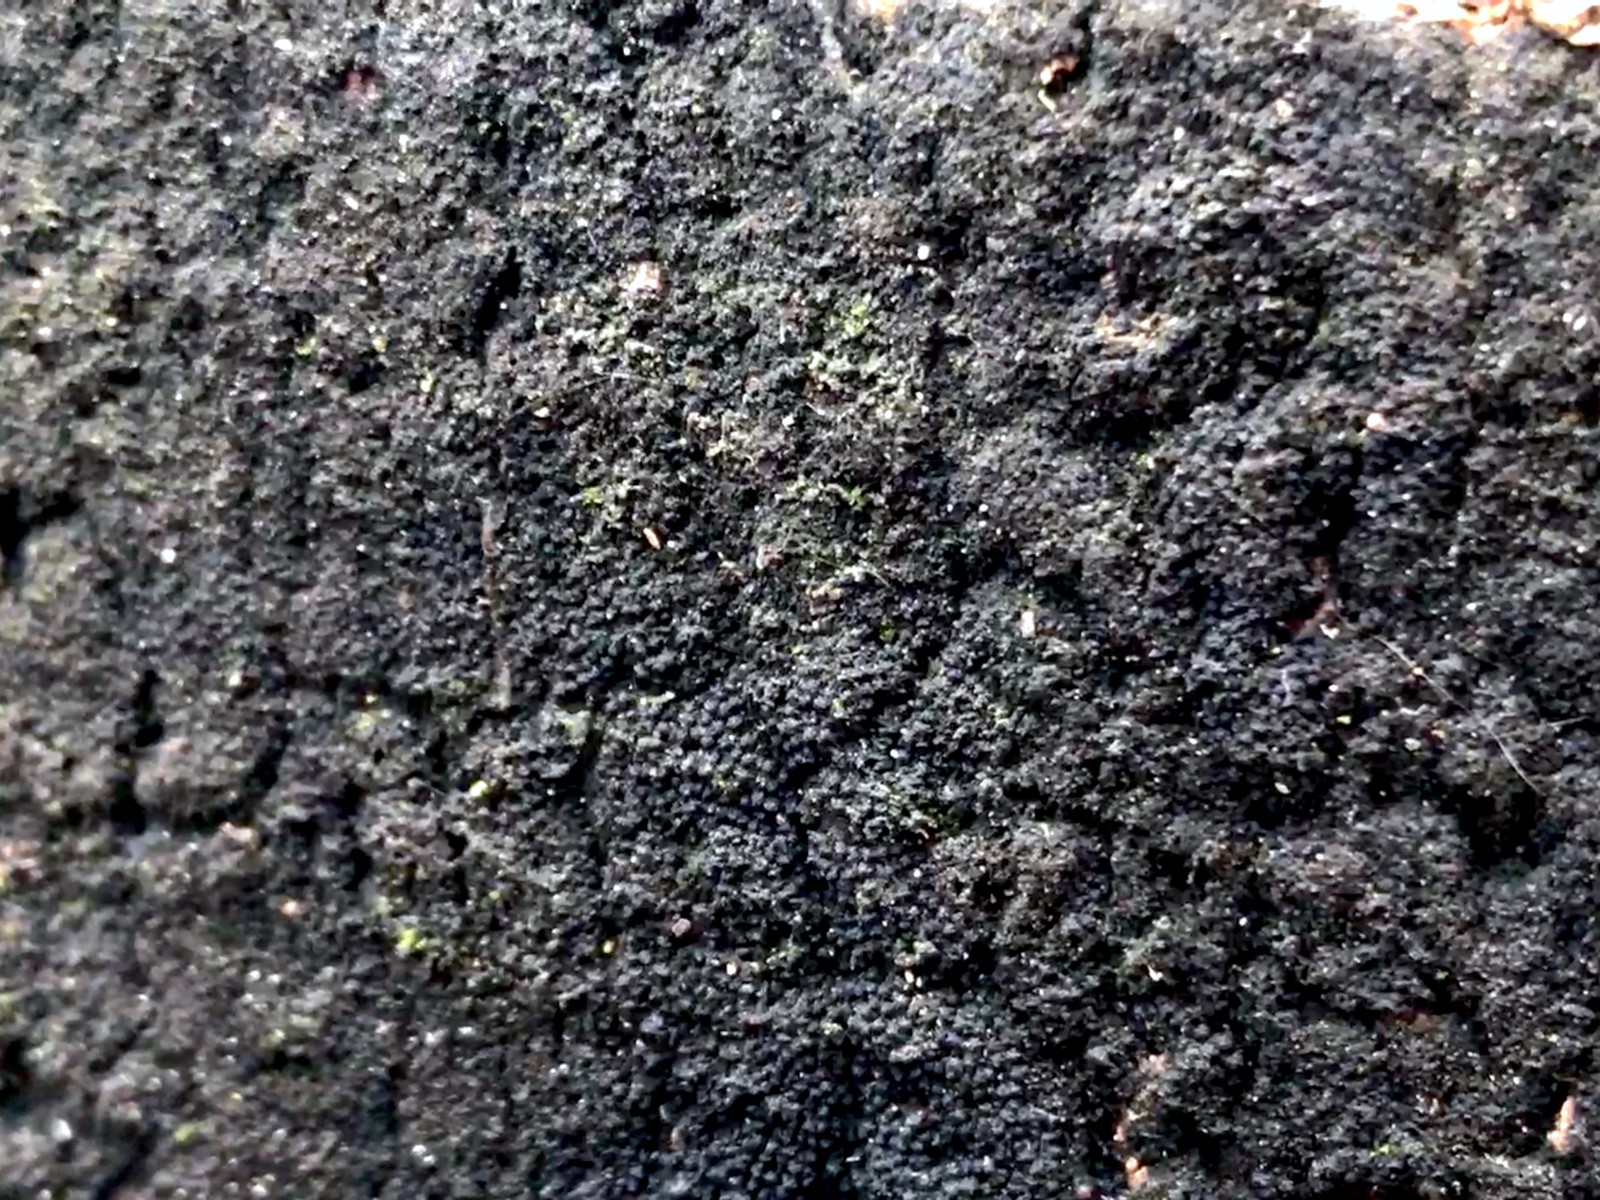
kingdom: Fungi
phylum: Ascomycota
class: Sordariomycetes
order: Xylariales
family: Diatrypaceae
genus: Eutypa
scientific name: Eutypa spinosa
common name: grov kulskorpe
